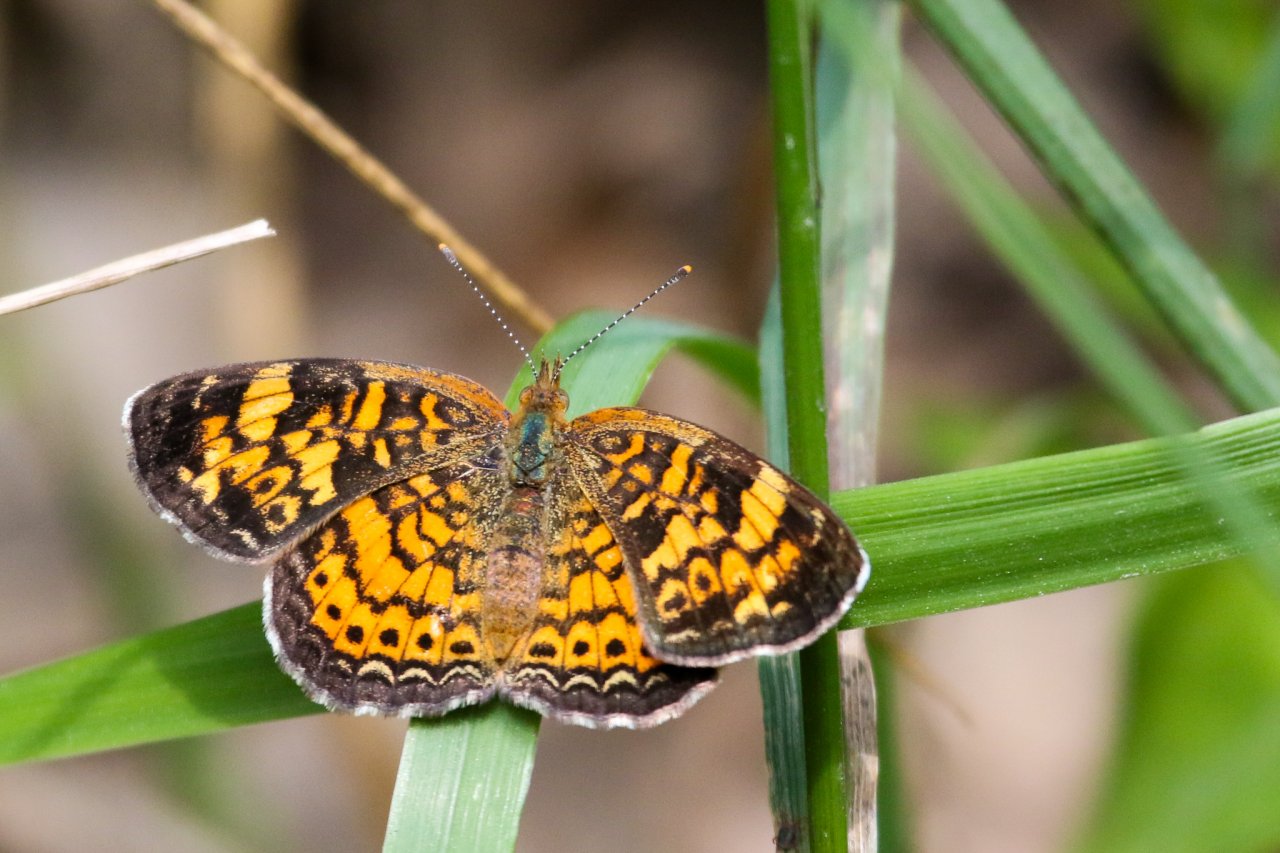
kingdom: Animalia
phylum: Arthropoda
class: Insecta
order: Lepidoptera
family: Nymphalidae
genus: Phyciodes
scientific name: Phyciodes tharos
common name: Pearl Crescent
